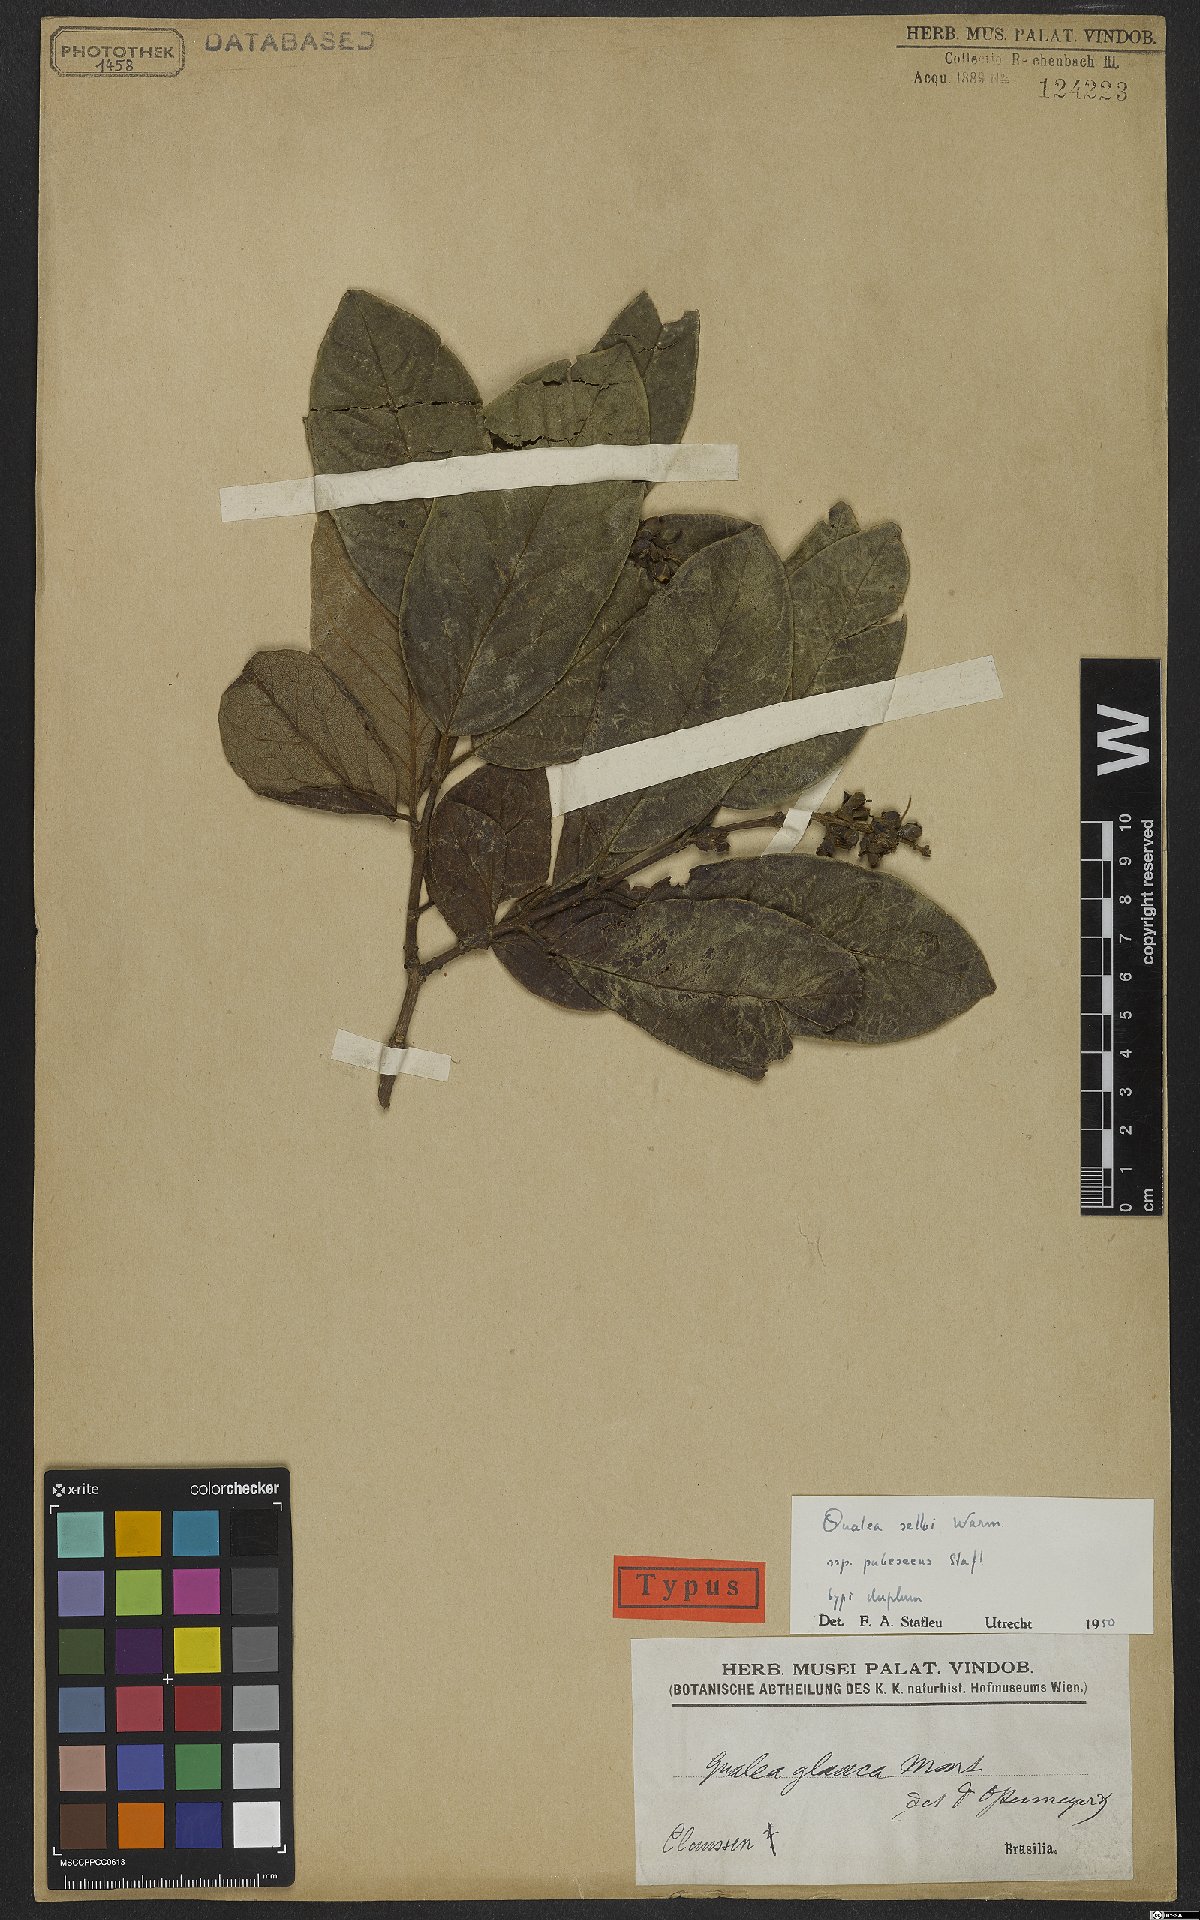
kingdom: Plantae
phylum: Tracheophyta
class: Magnoliopsida
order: Myrtales
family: Vochysiaceae
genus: Qualea
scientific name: Qualea selloi
